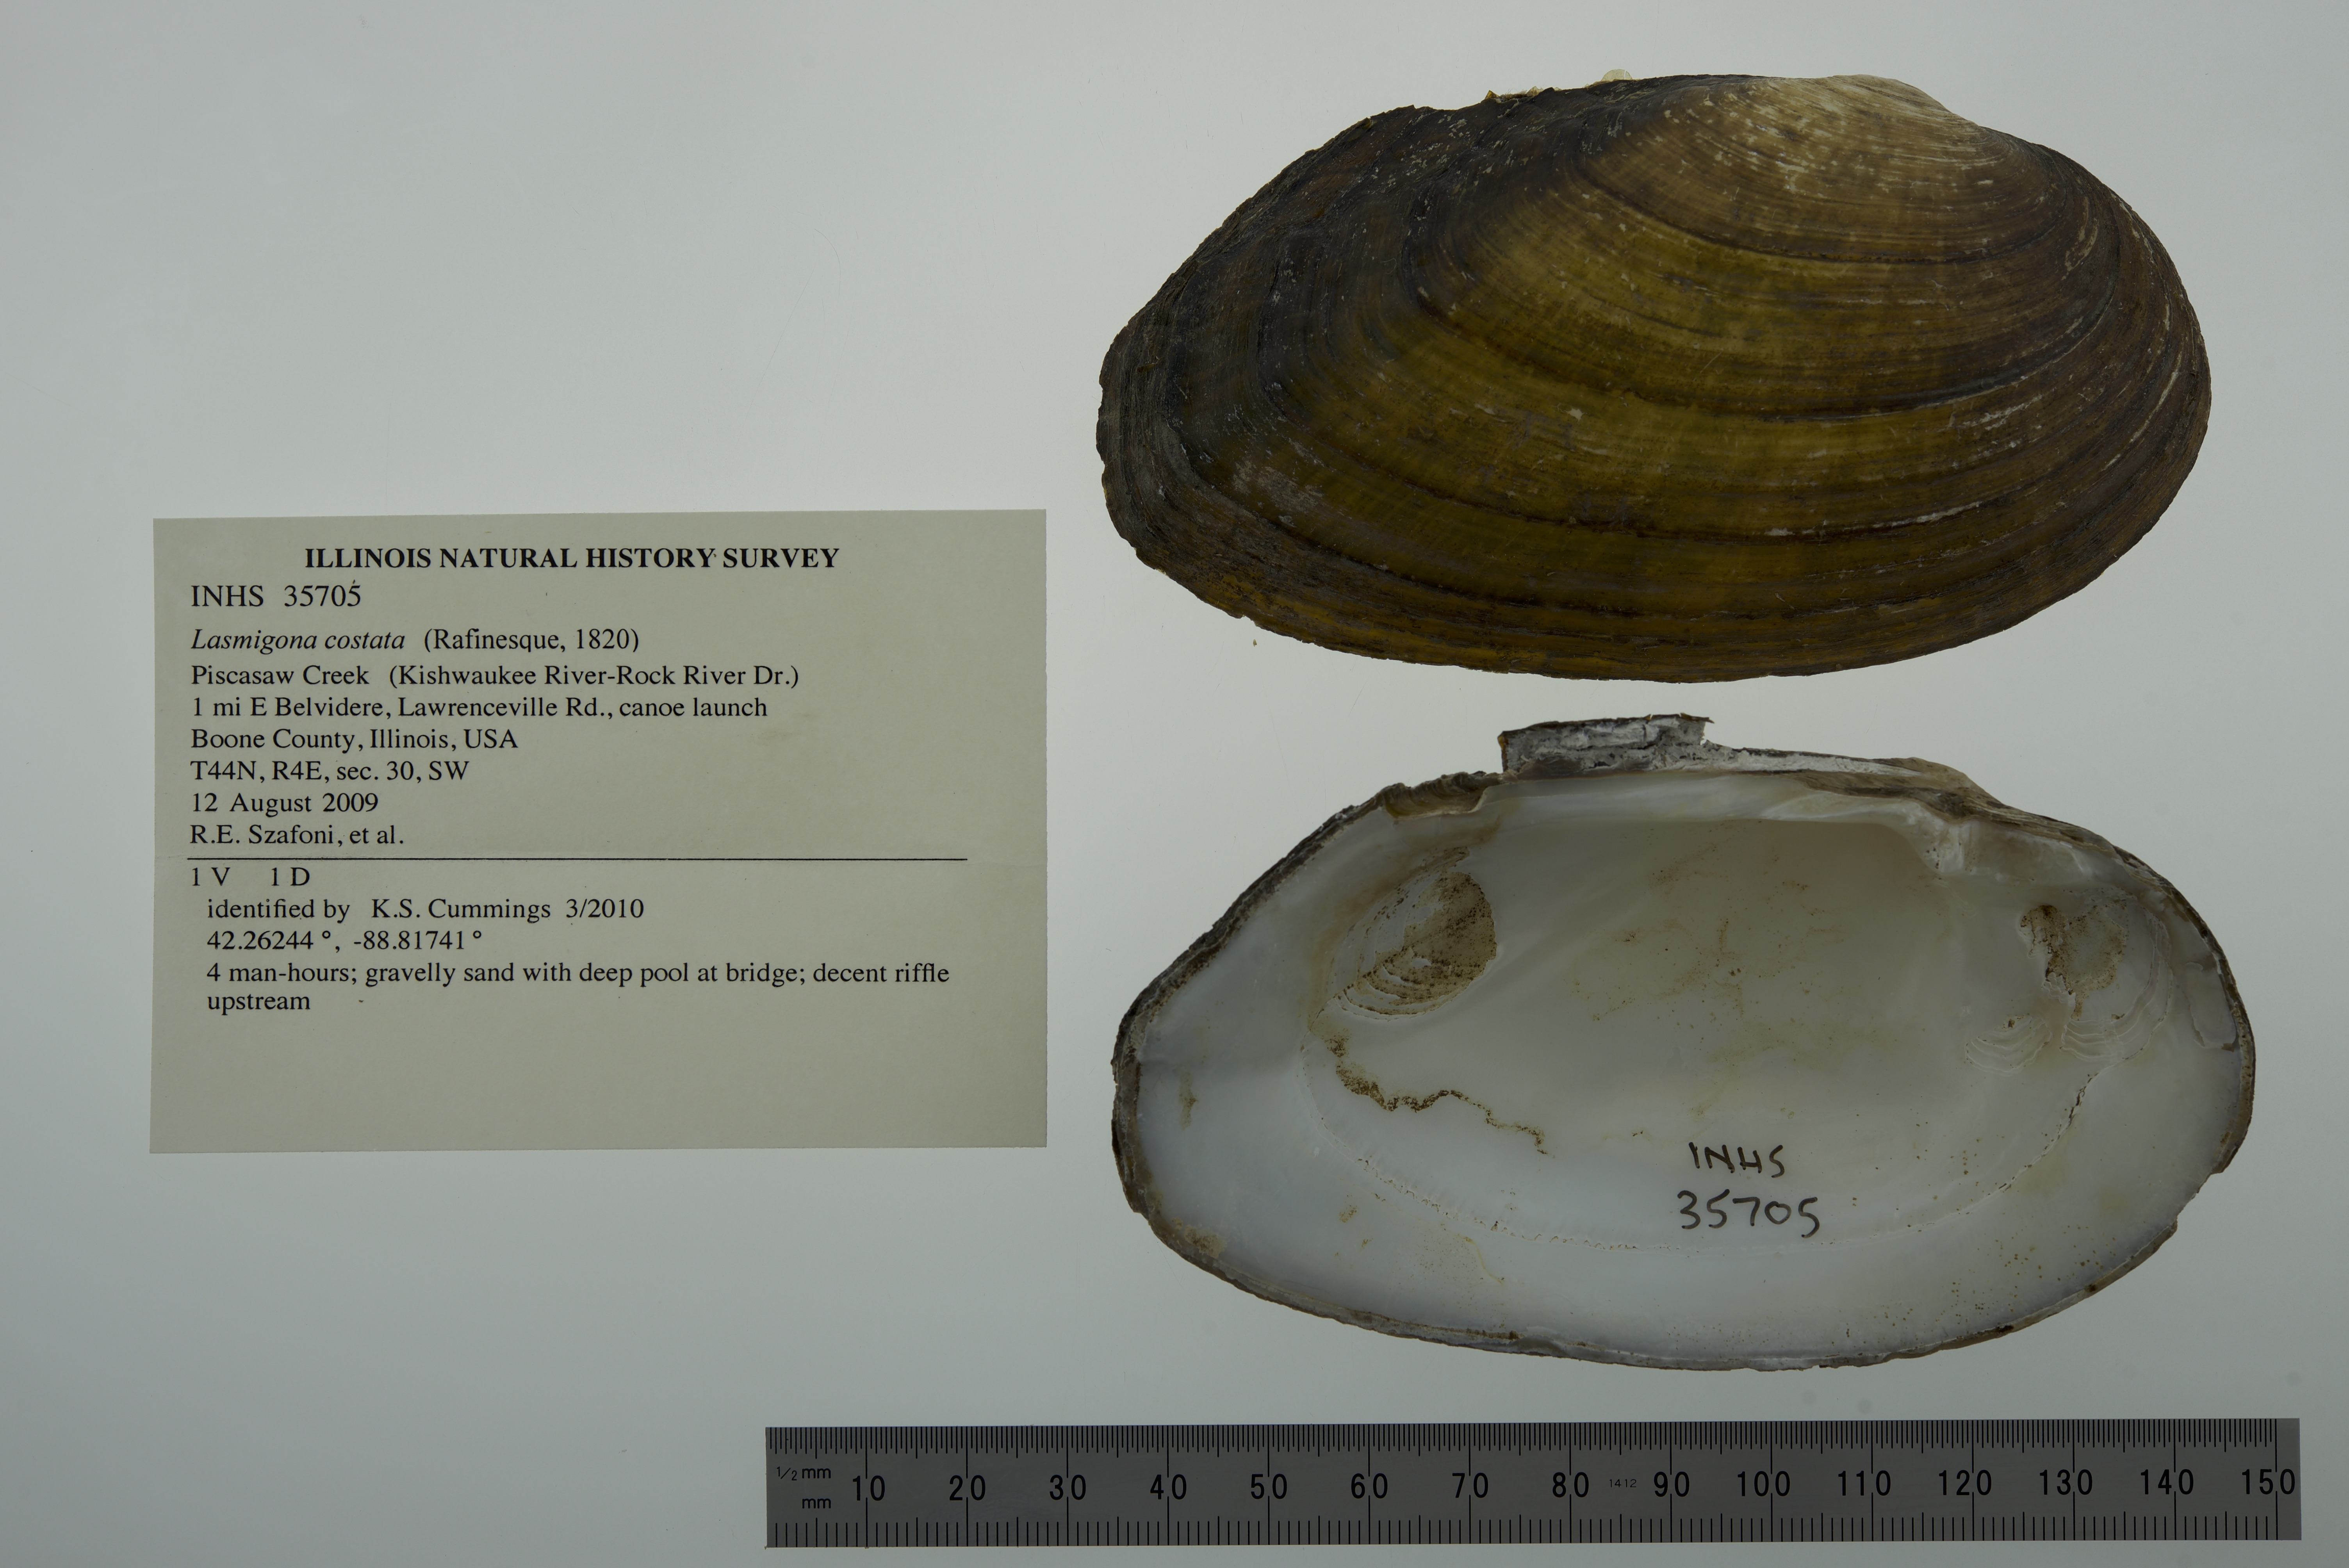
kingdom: Animalia
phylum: Mollusca
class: Bivalvia
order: Unionida
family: Unionidae
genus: Lasmigona
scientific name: Lasmigona costata
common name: Flutedshell
